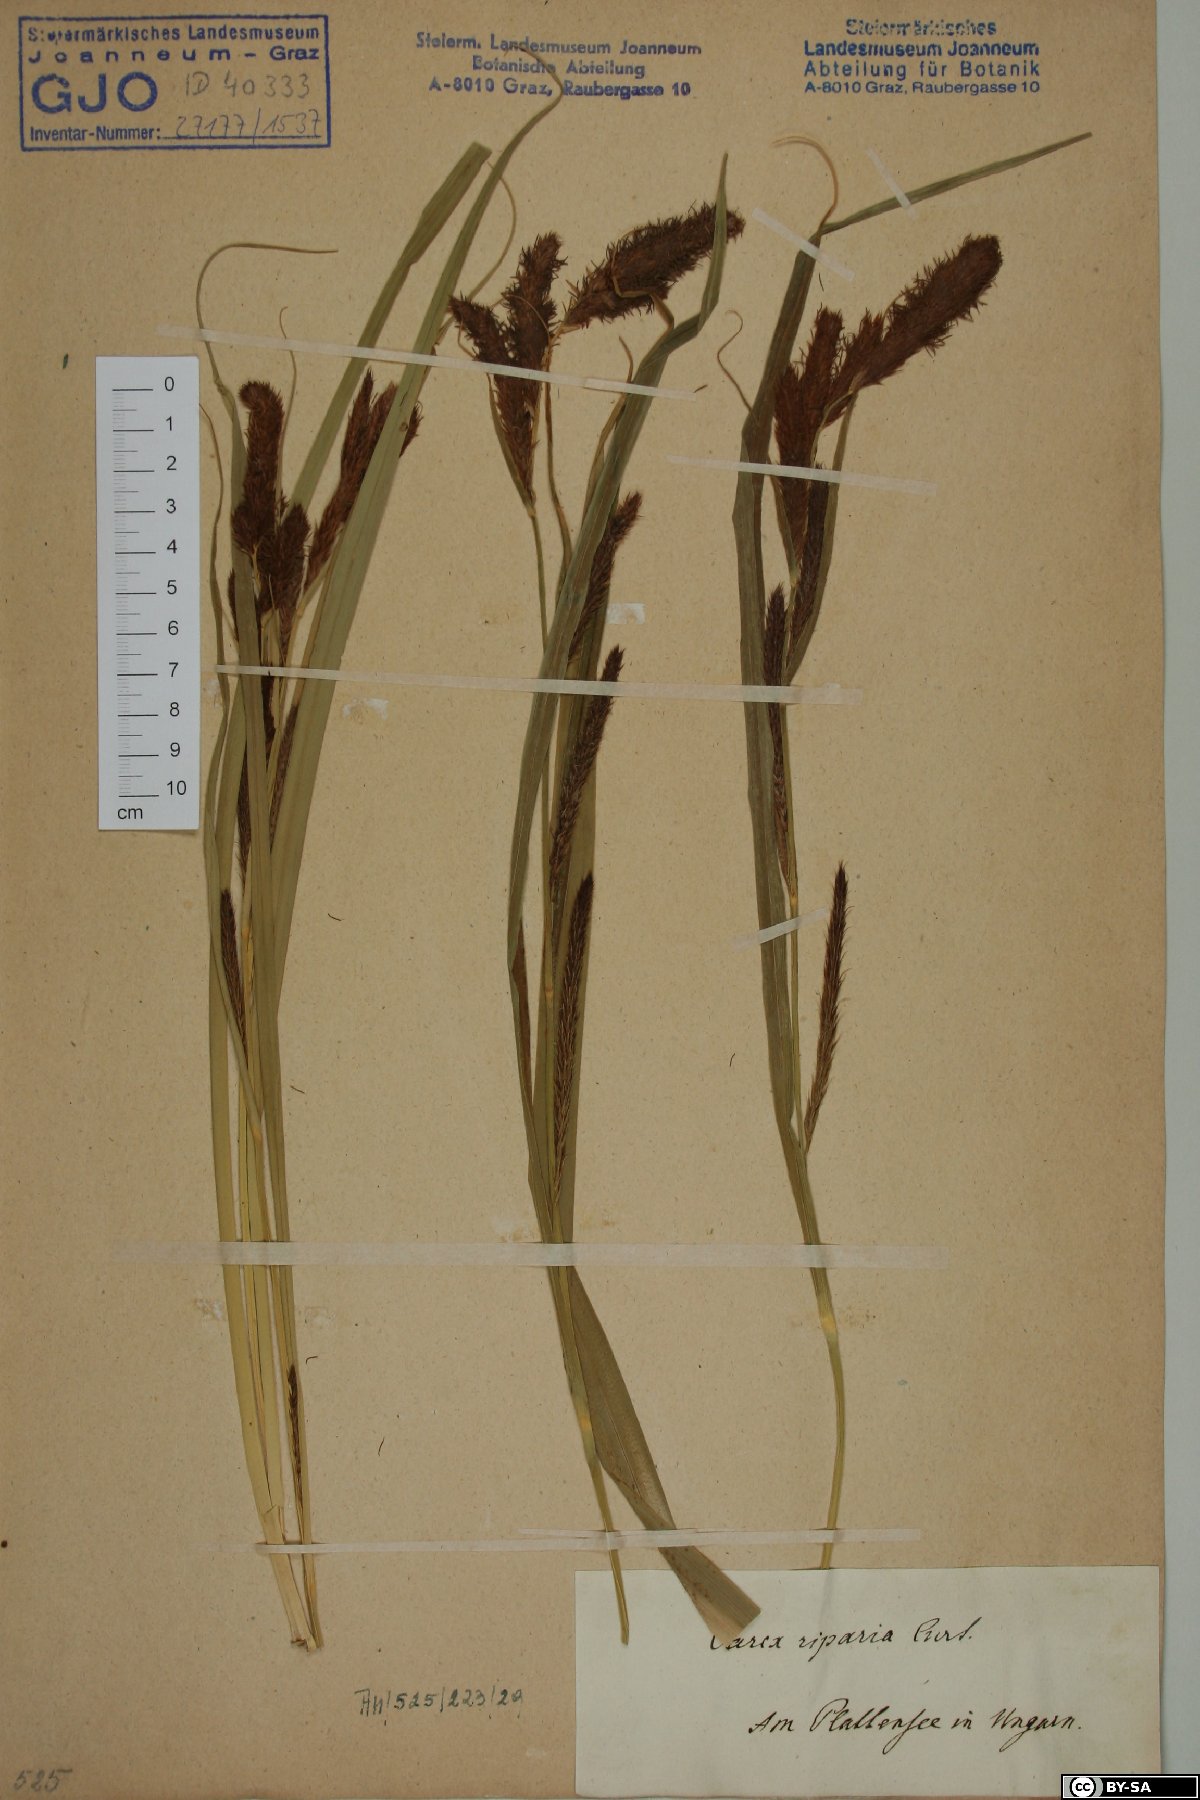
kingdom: Plantae
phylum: Tracheophyta
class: Liliopsida
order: Poales
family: Cyperaceae
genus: Carex
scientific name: Carex riparia
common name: Greater pond-sedge
